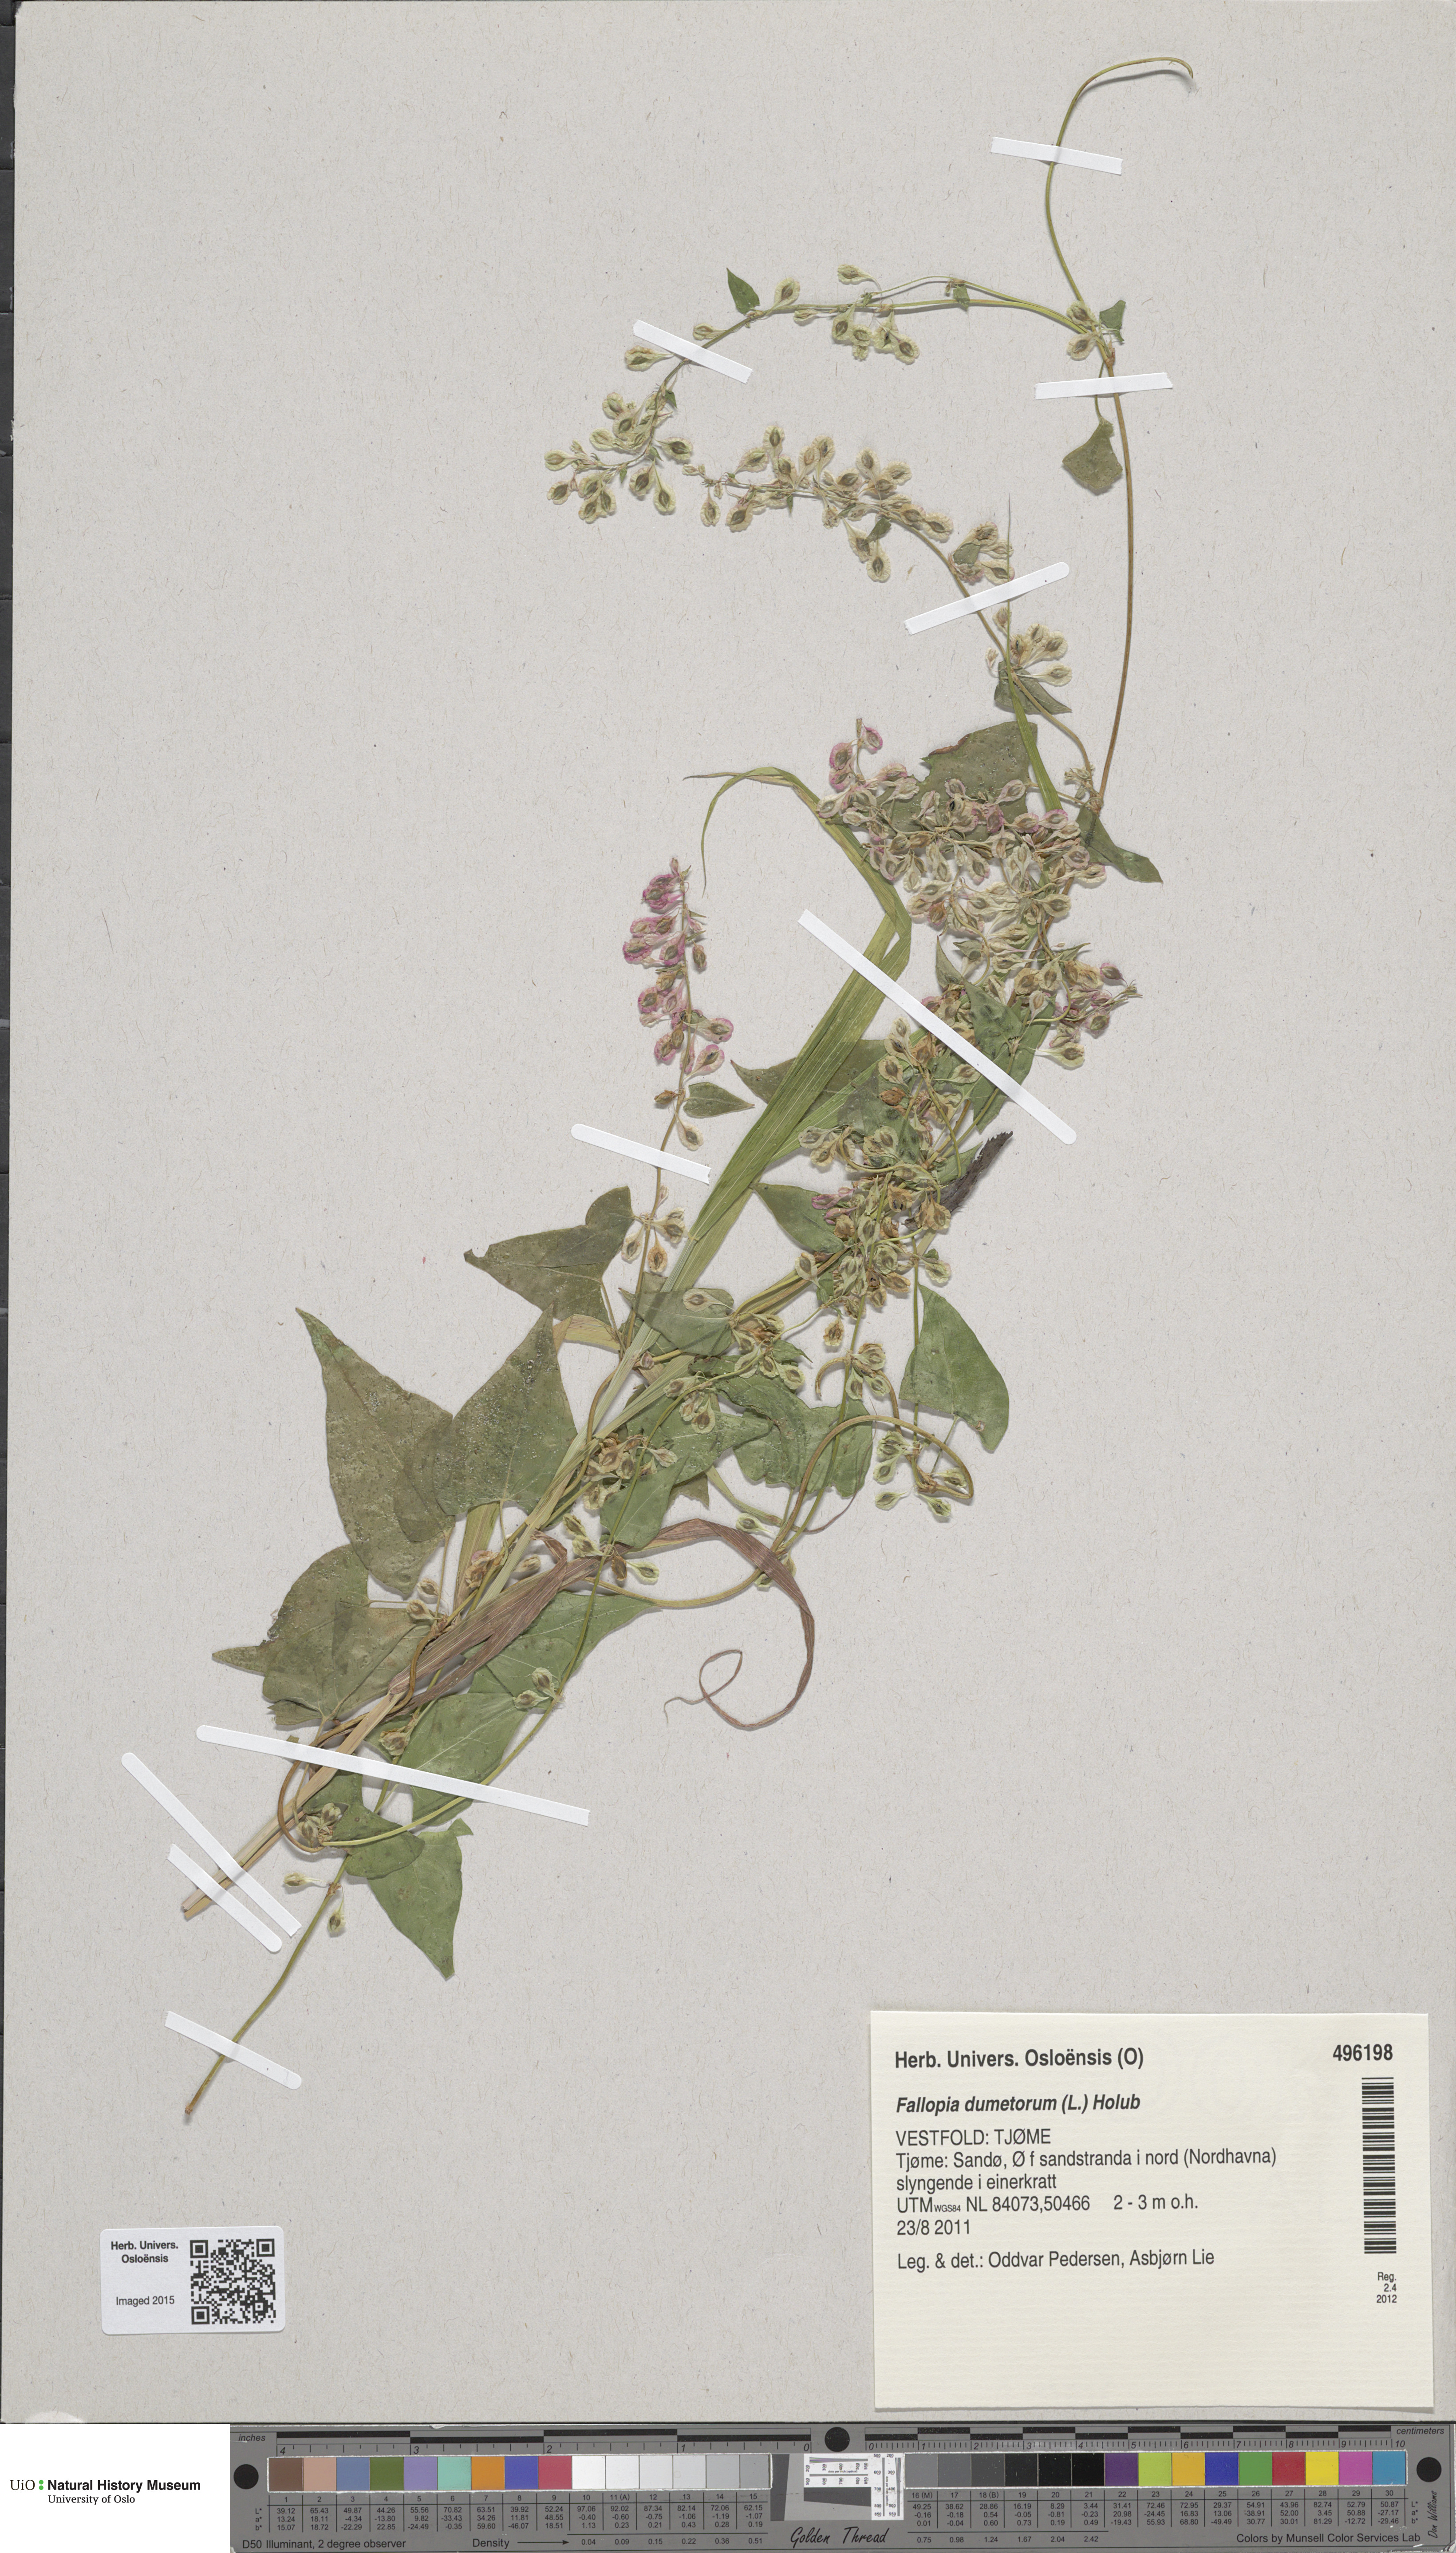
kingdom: Plantae
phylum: Tracheophyta
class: Magnoliopsida
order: Caryophyllales
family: Polygonaceae
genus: Fallopia
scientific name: Fallopia dumetorum
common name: Copse-bindweed
